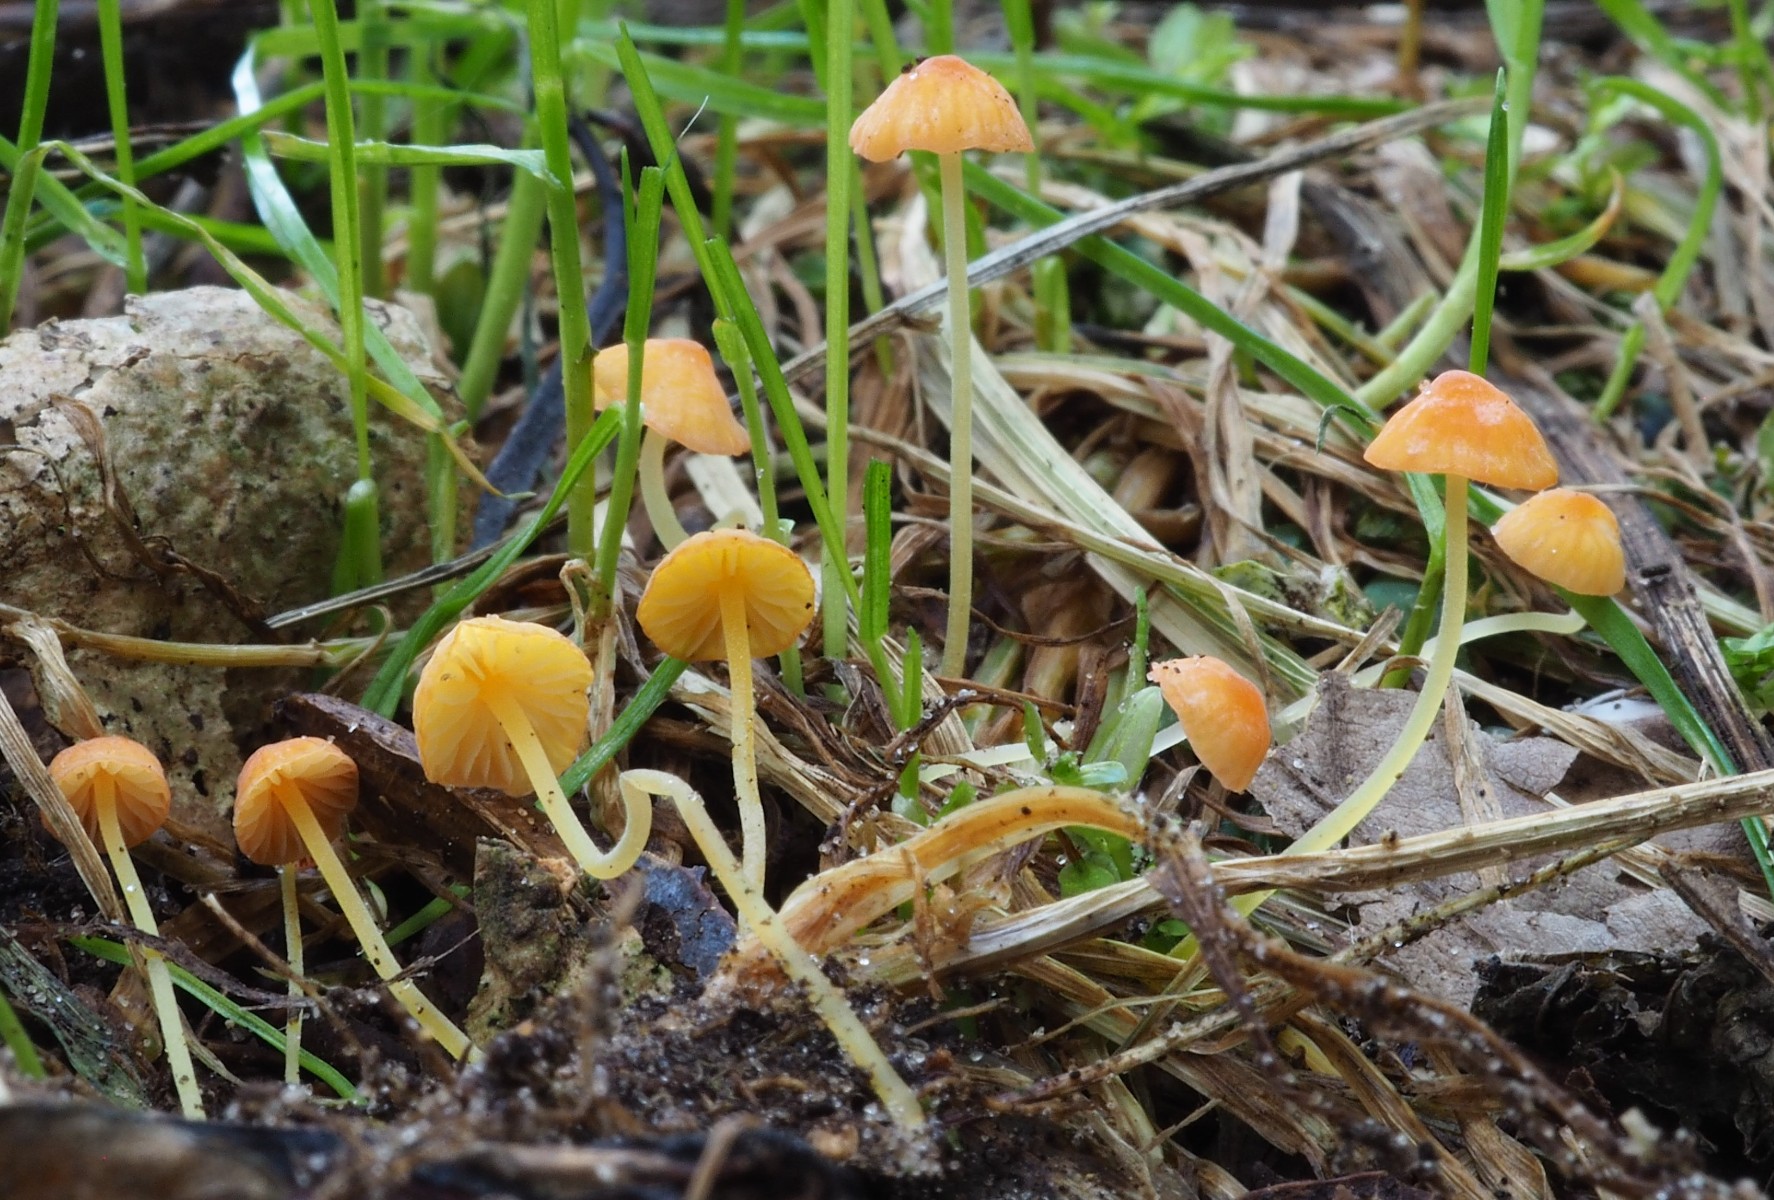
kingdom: Fungi
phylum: Basidiomycota
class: Agaricomycetes
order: Agaricales
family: Mycenaceae
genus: Mycena
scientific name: Mycena acicula
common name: orange huesvamp
